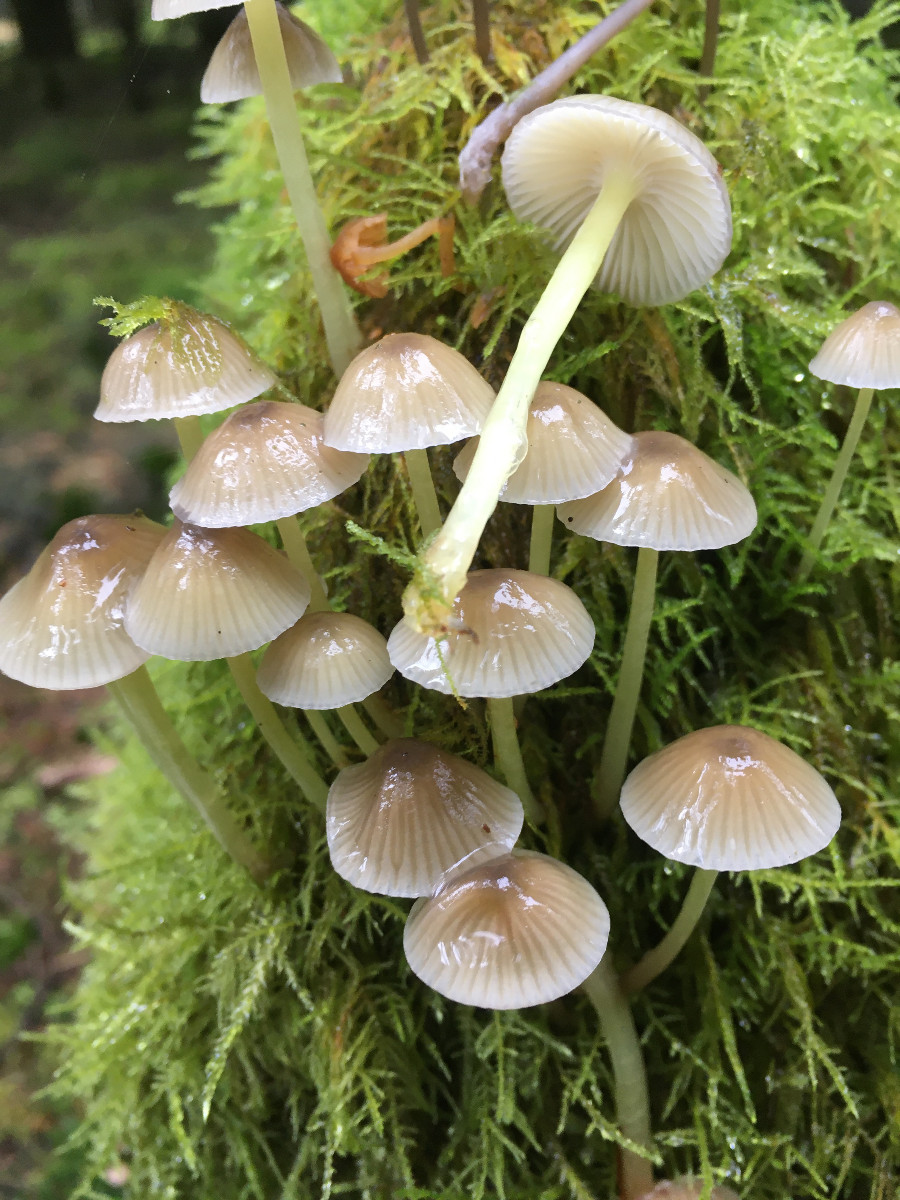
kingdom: Fungi
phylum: Basidiomycota
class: Agaricomycetes
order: Agaricales
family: Mycenaceae
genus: Mycena
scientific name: Mycena epipterygia
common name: gulstokket huesvamp
